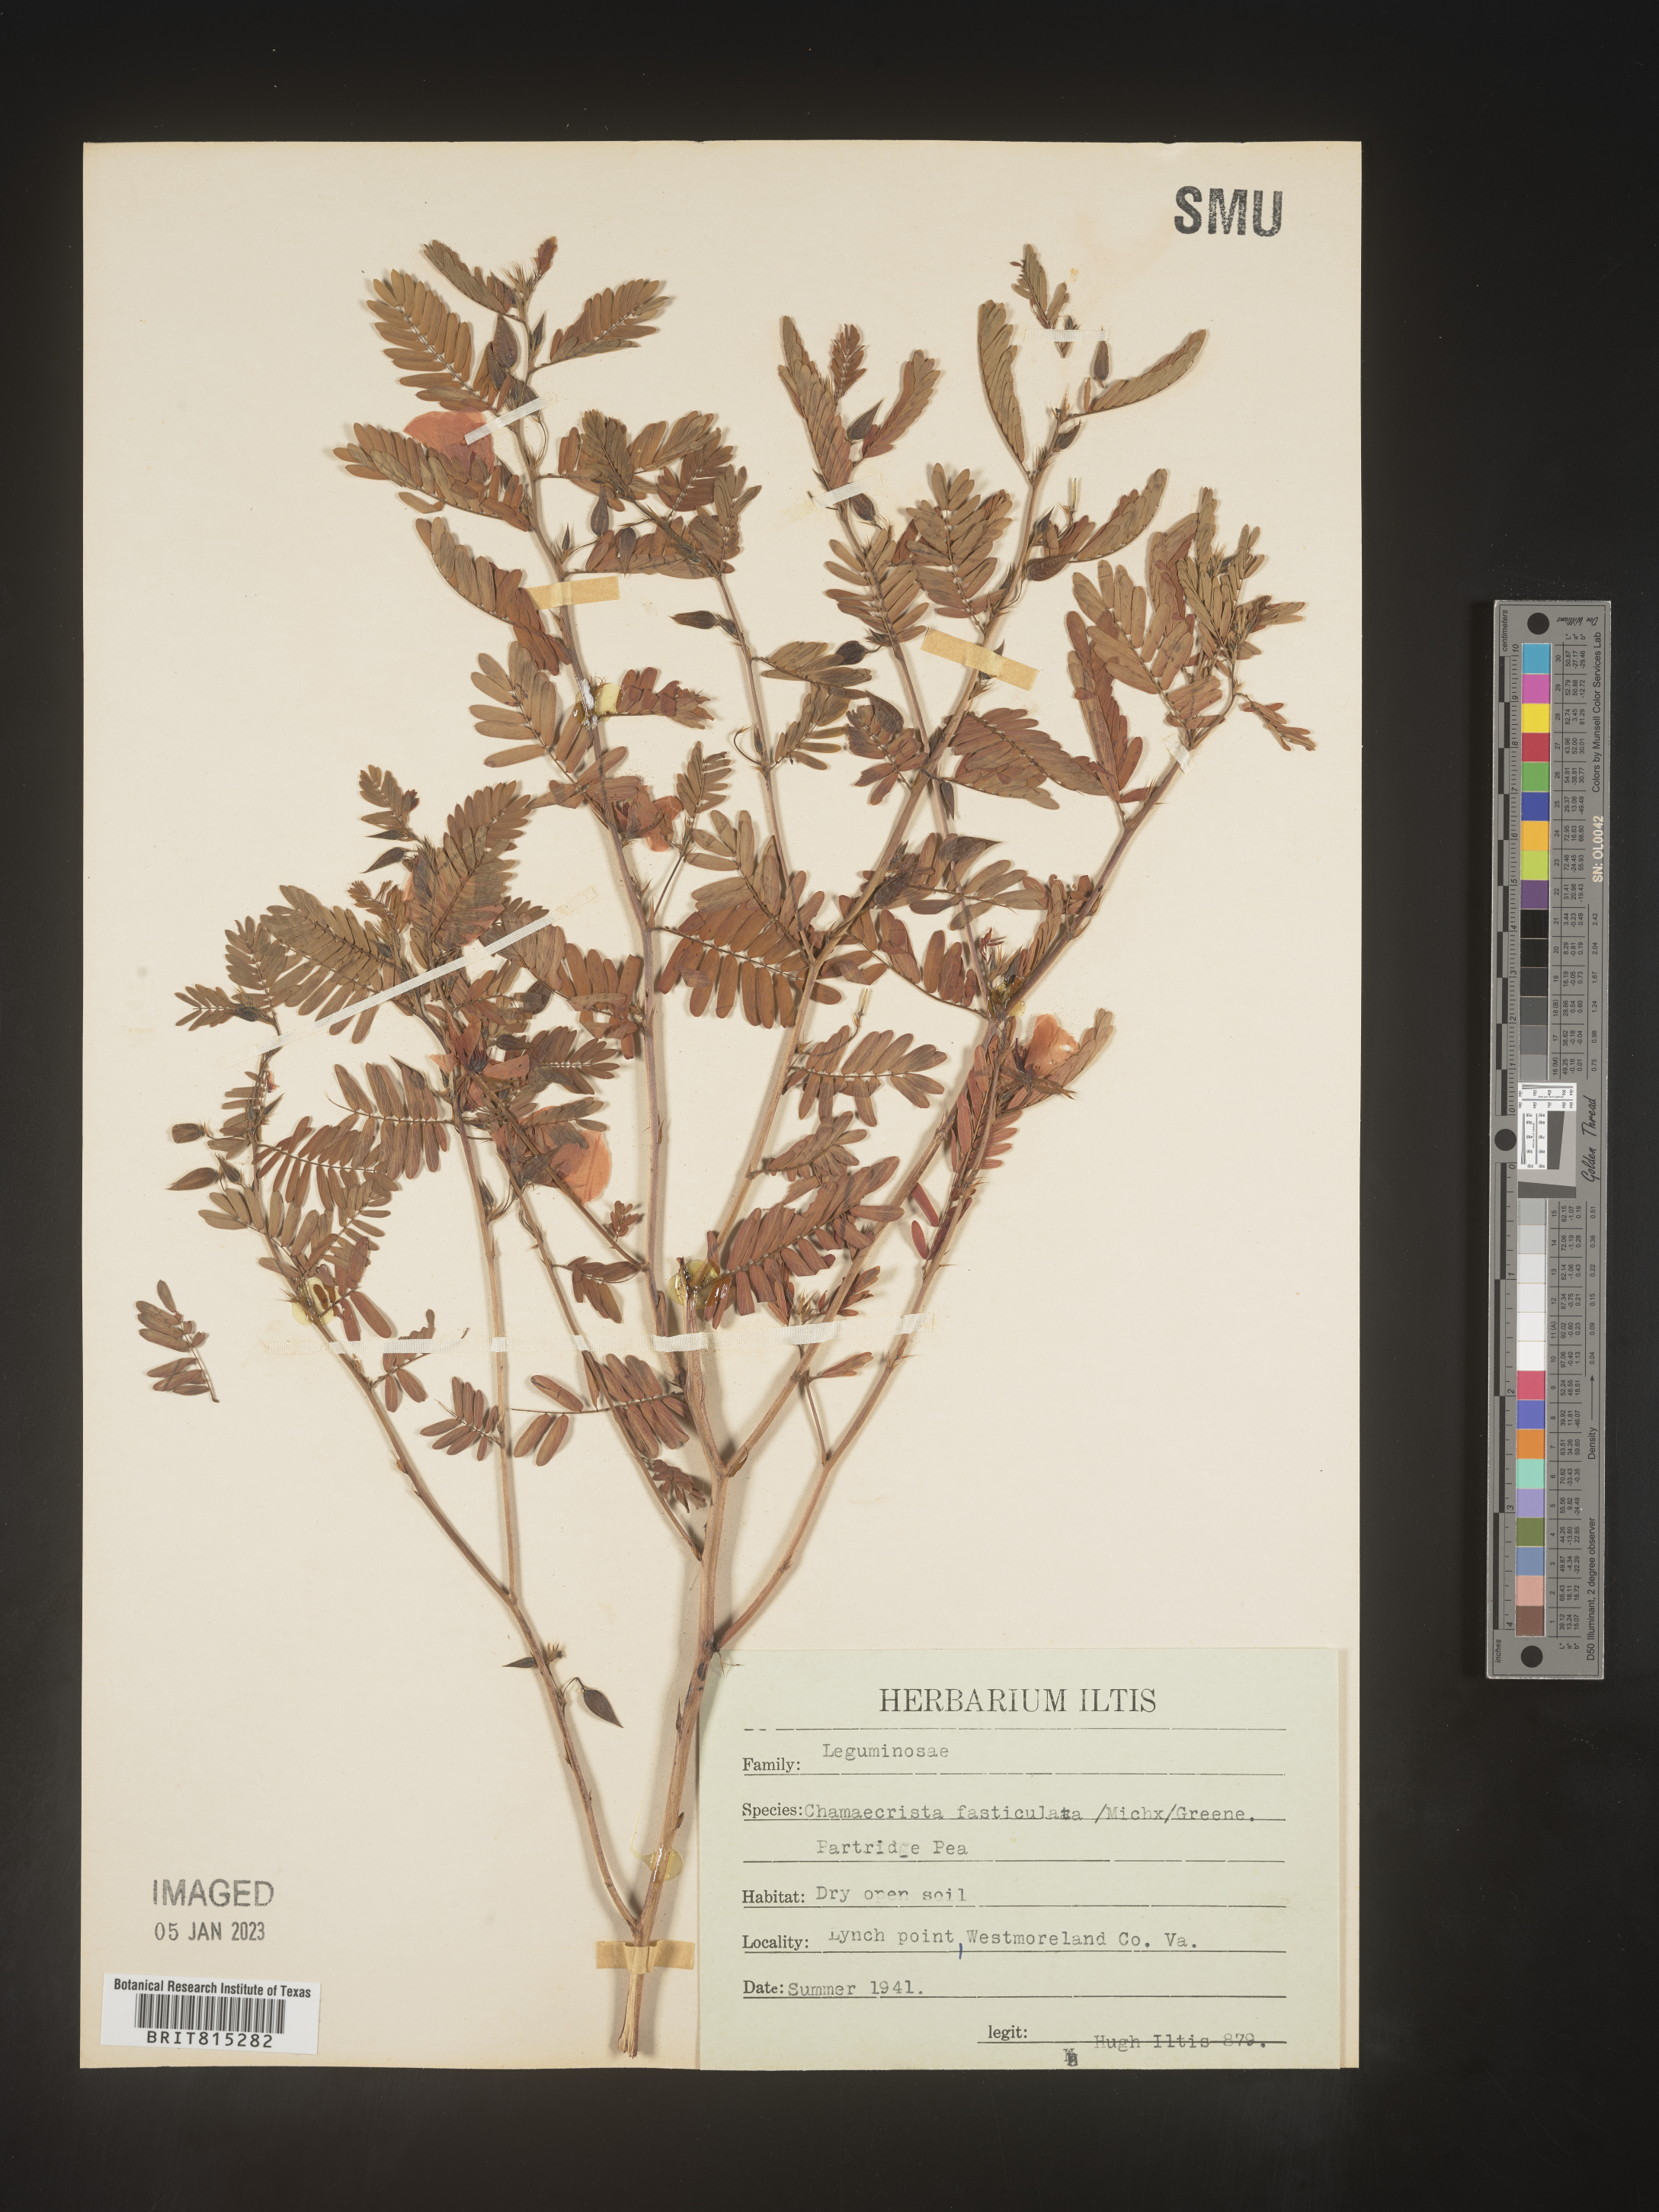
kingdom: Plantae
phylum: Tracheophyta
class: Magnoliopsida
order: Fabales
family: Fabaceae
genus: Chamaecrista
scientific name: Chamaecrista fasciculata
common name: Golden cassia
